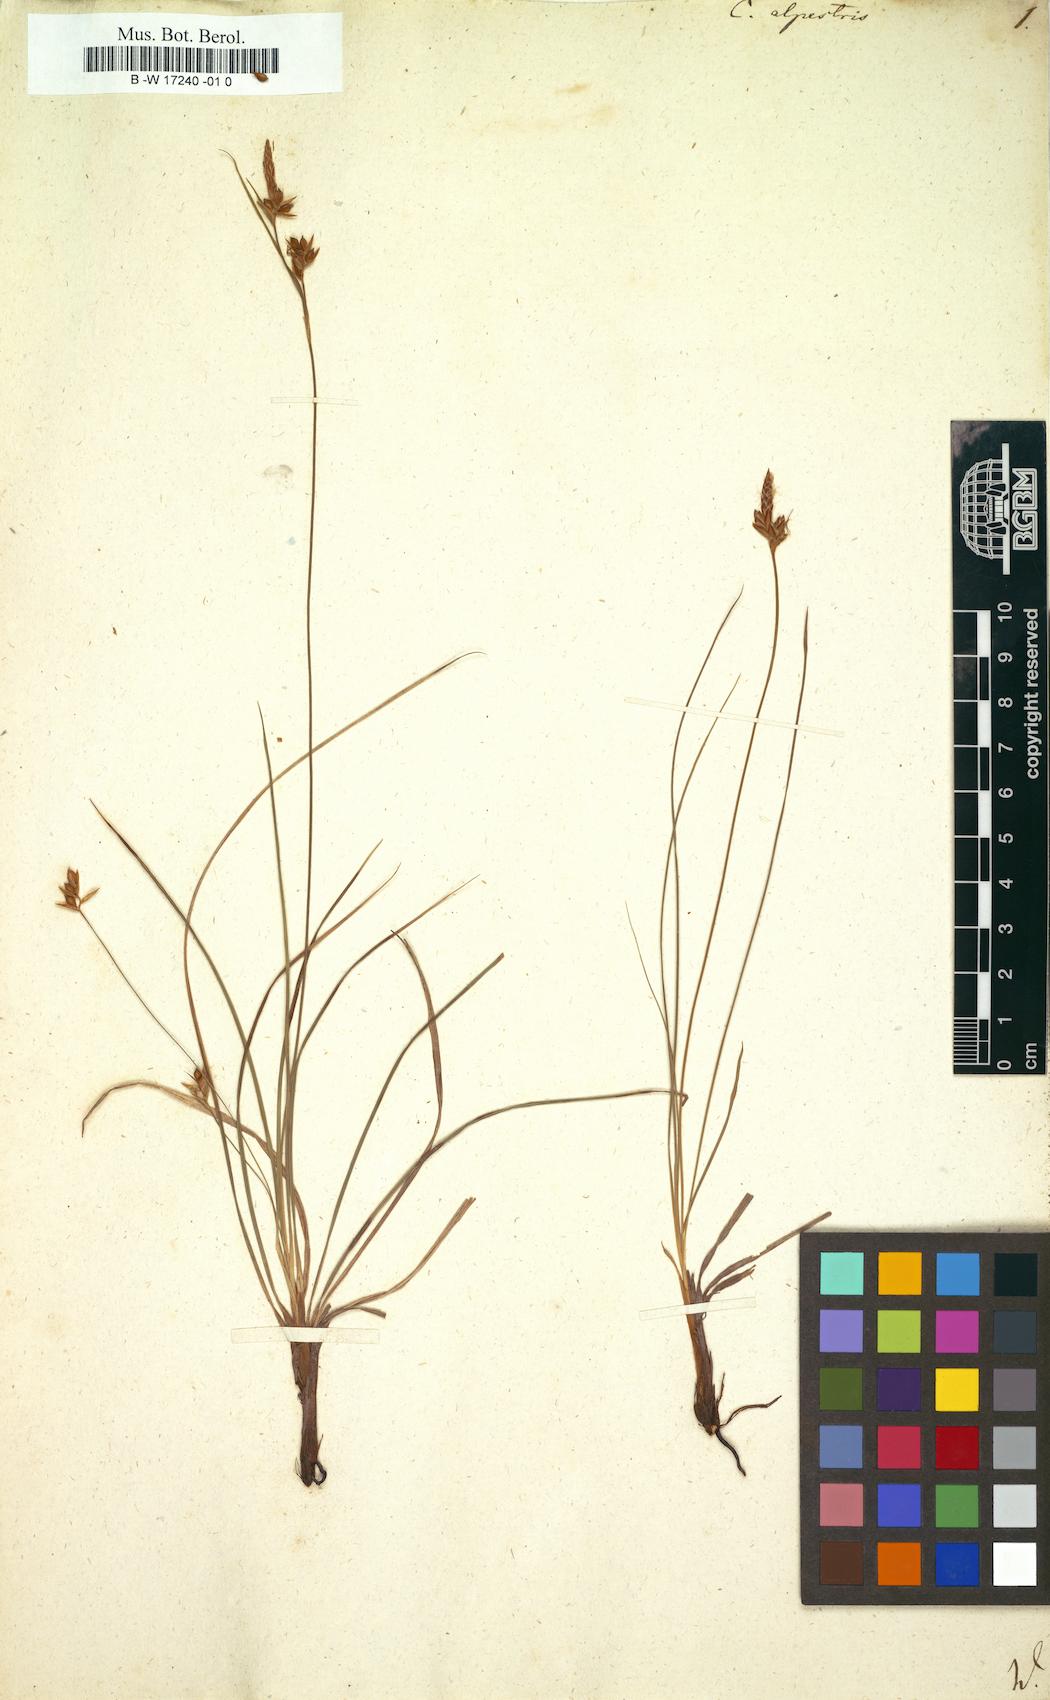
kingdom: Plantae
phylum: Tracheophyta
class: Liliopsida
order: Poales
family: Cyperaceae
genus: Carex
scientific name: Carex halleriana
